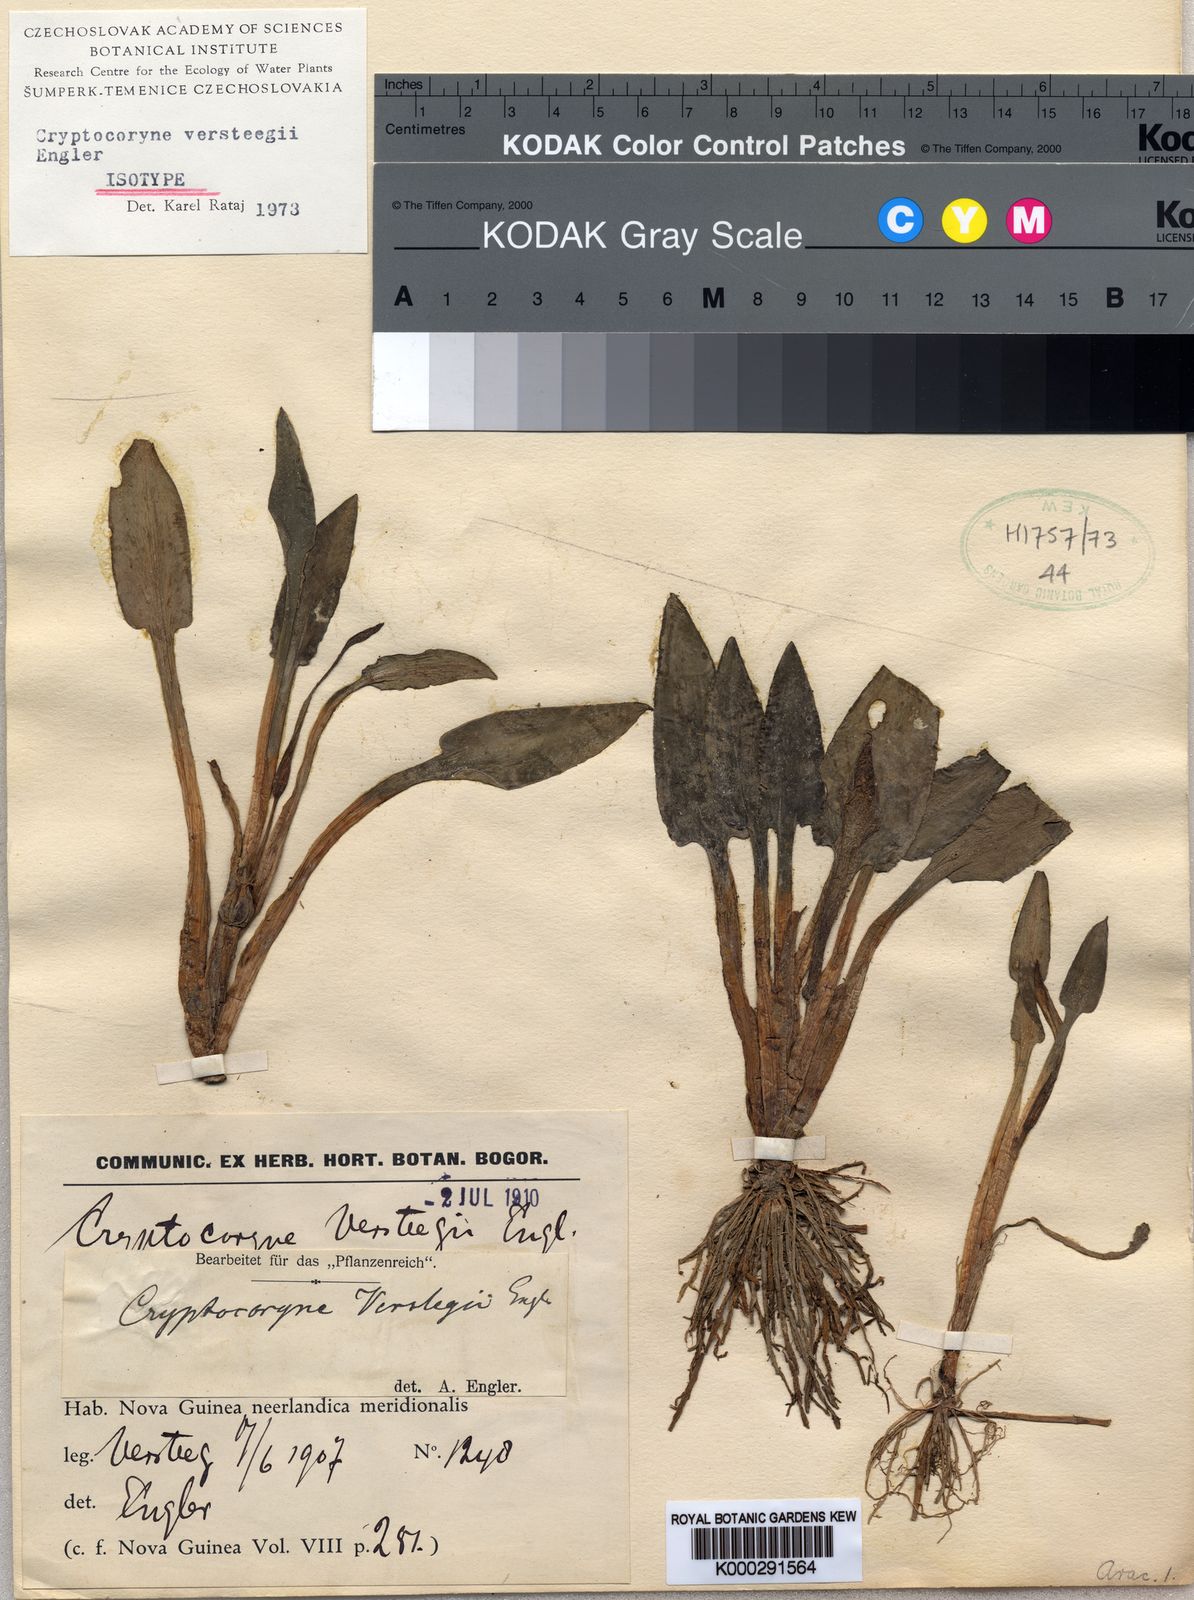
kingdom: Plantae
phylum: Tracheophyta
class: Liliopsida
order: Alismatales
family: Araceae
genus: Cryptocoryne
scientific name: Cryptocoryne versteegii
